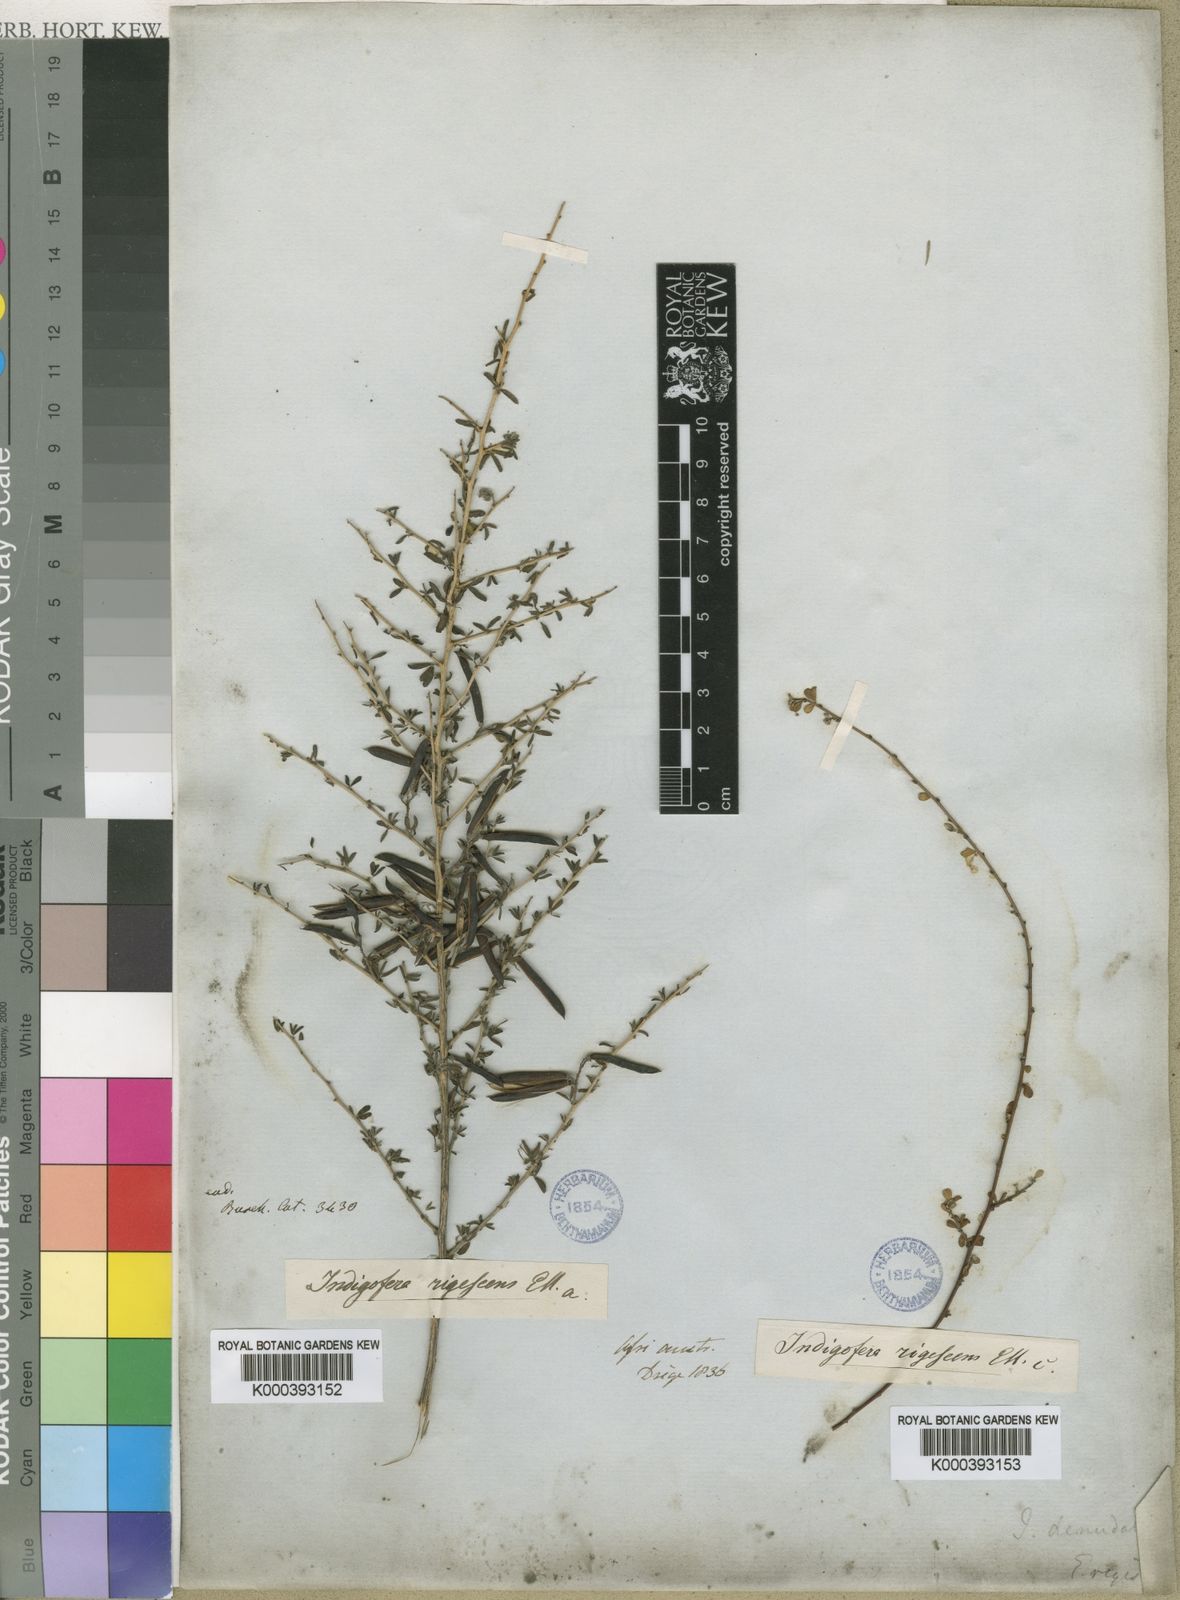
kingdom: Plantae
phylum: Tracheophyta
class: Magnoliopsida
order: Fabales
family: Fabaceae
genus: Indigofera
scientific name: Indigofera
